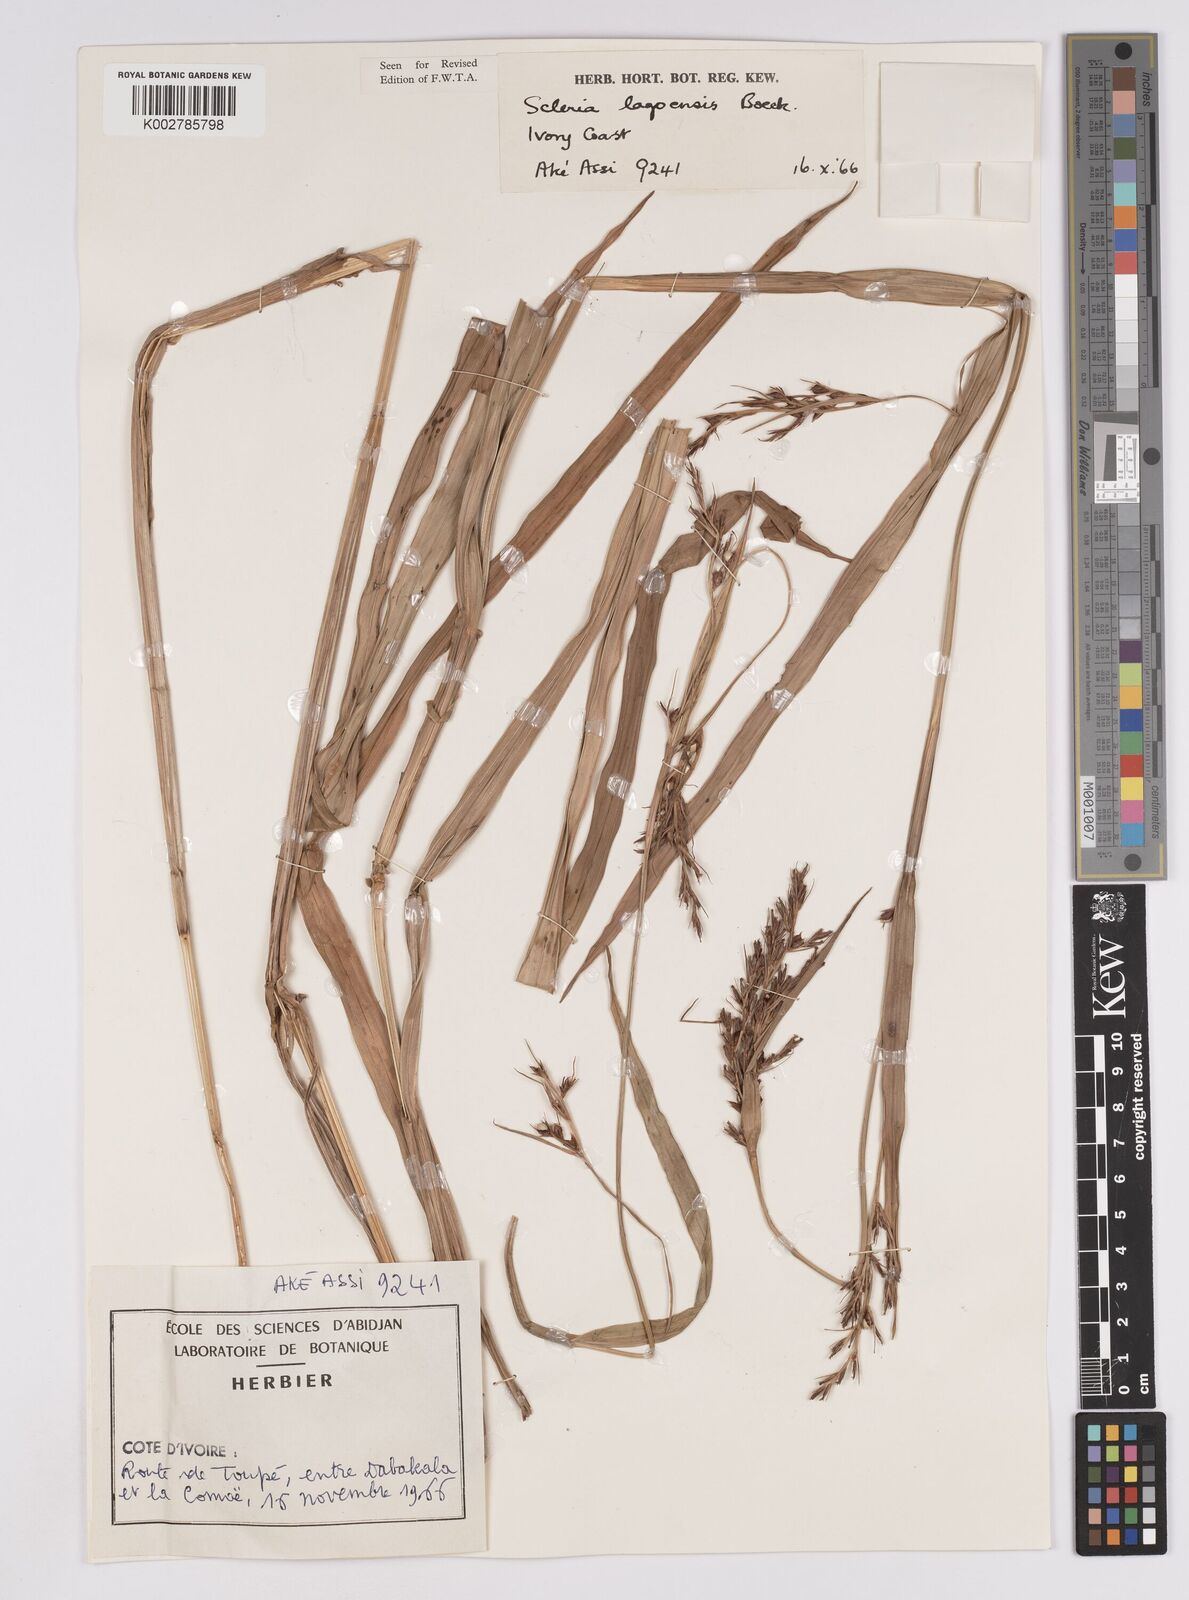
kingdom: Plantae
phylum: Tracheophyta
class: Liliopsida
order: Poales
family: Cyperaceae
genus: Scleria
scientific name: Scleria lagoensis
